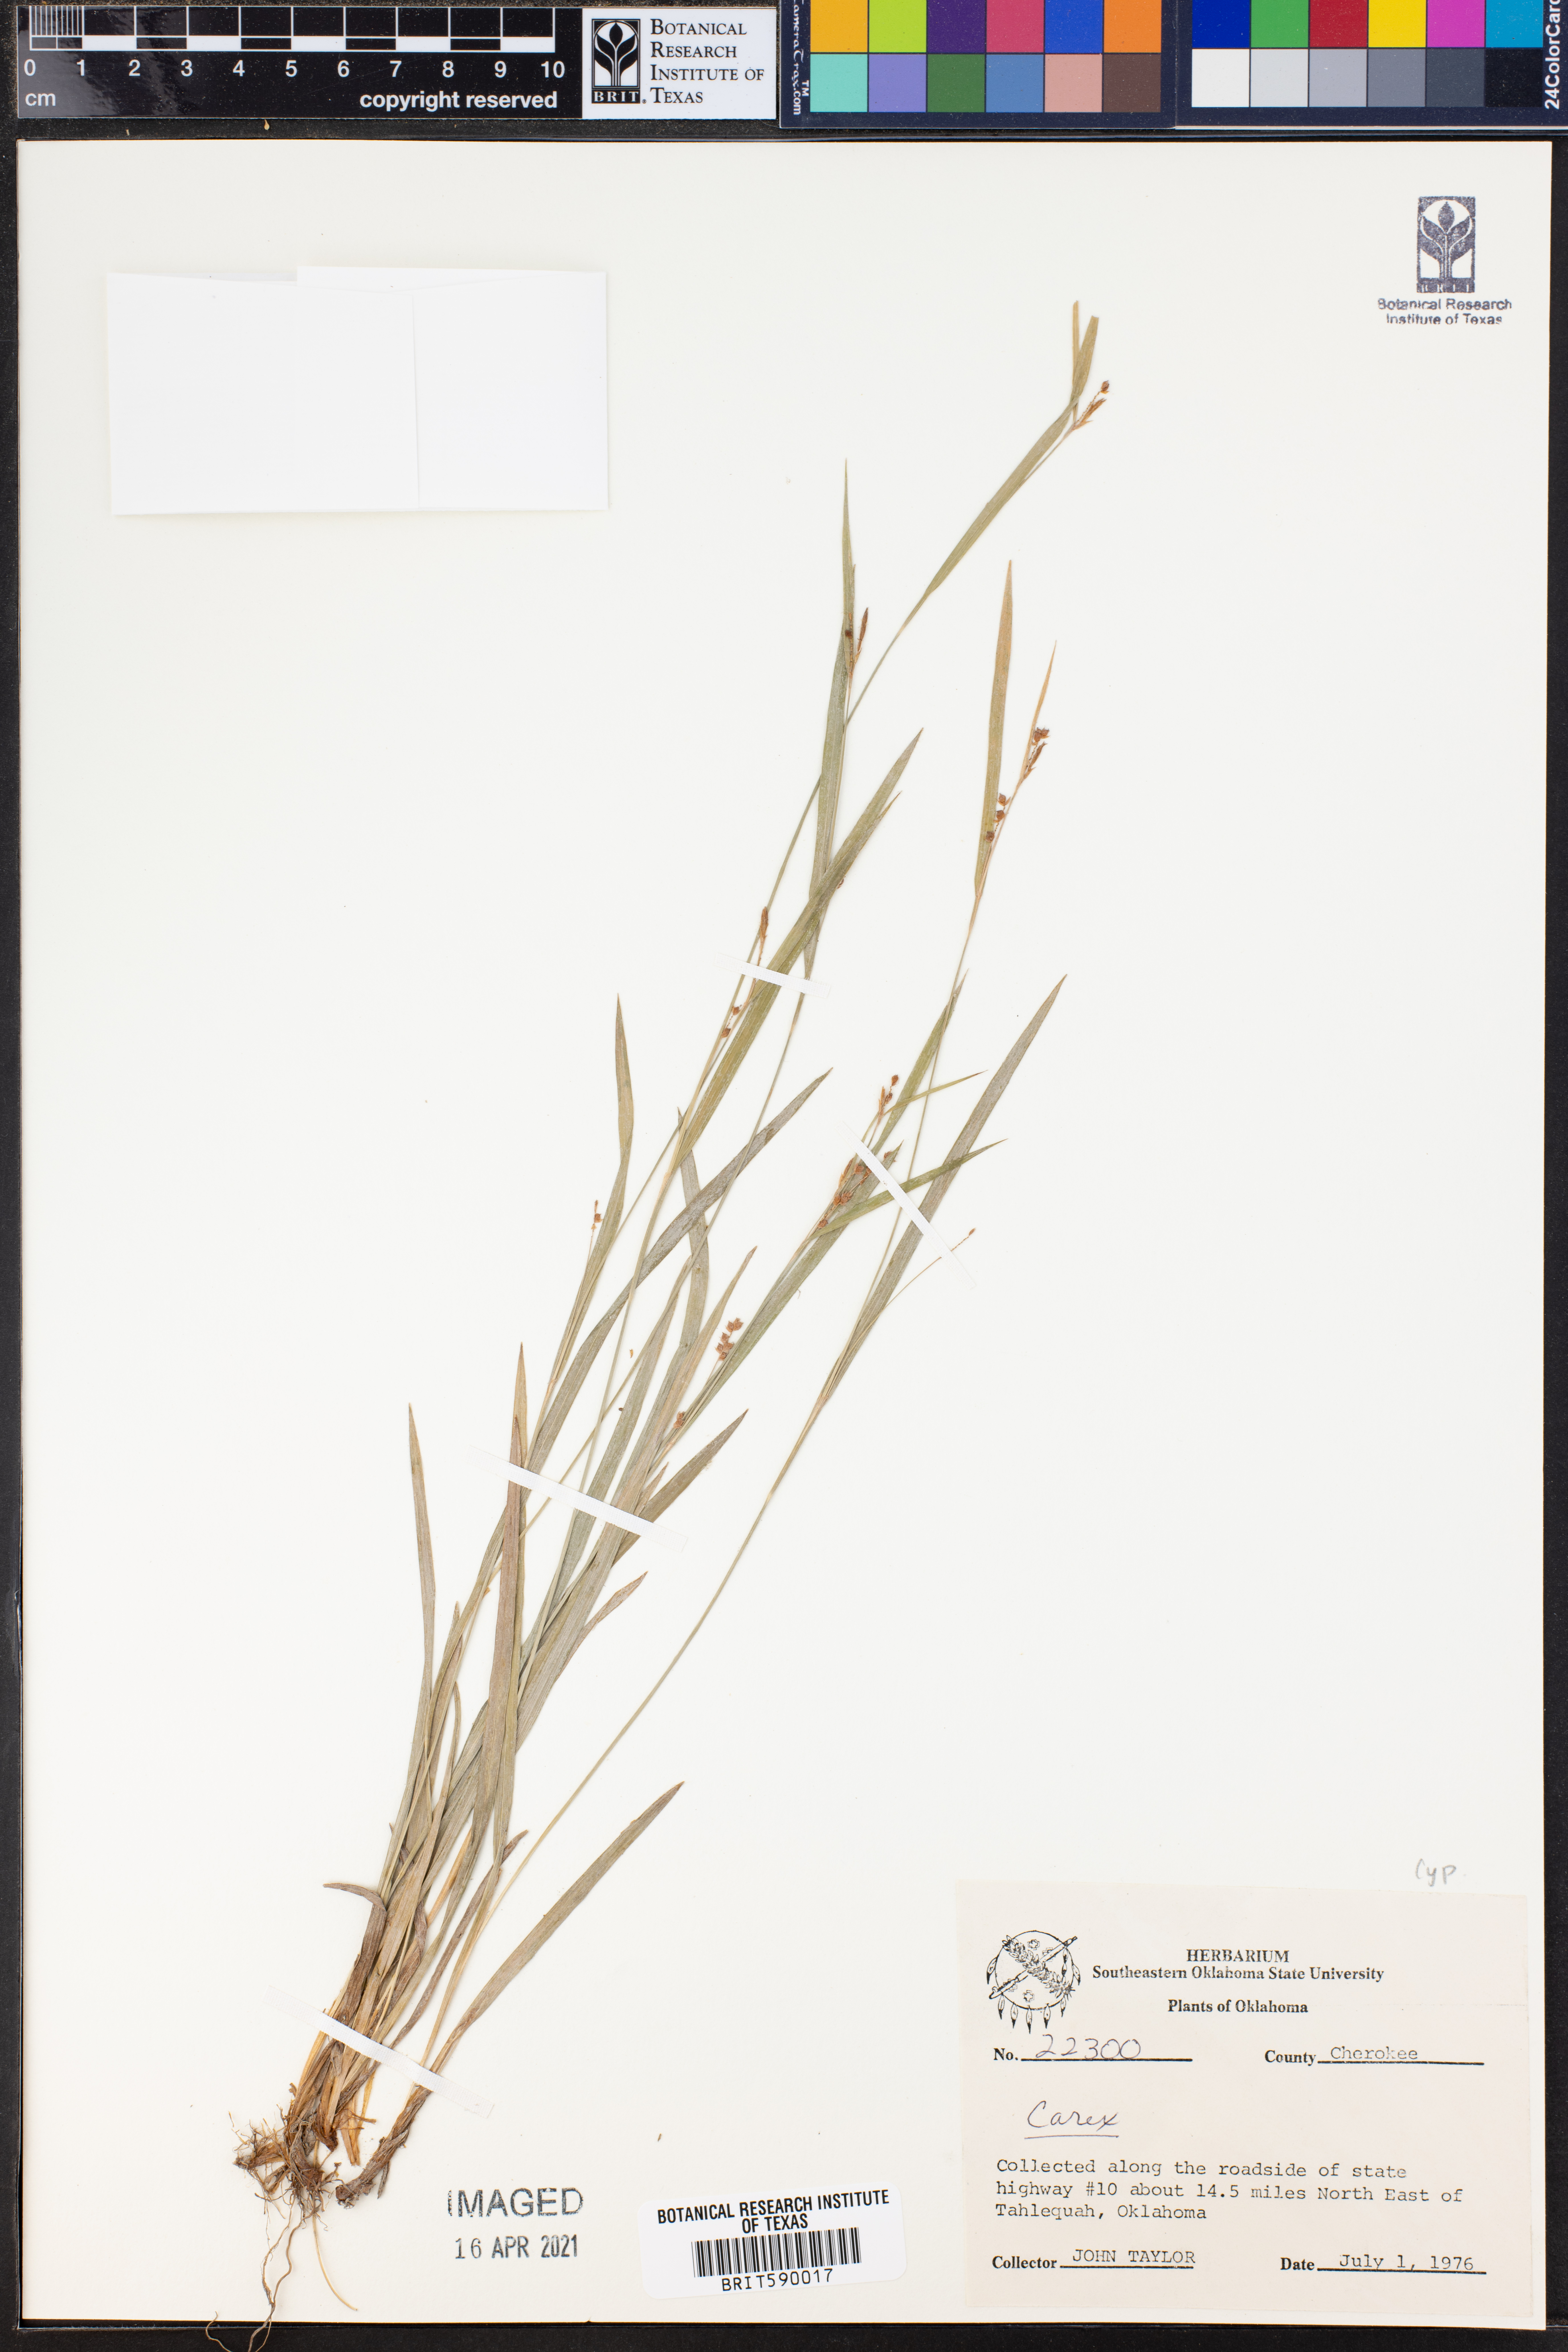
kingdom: Plantae
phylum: Tracheophyta
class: Liliopsida
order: Poales
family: Cyperaceae
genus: Carex
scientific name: Carex
